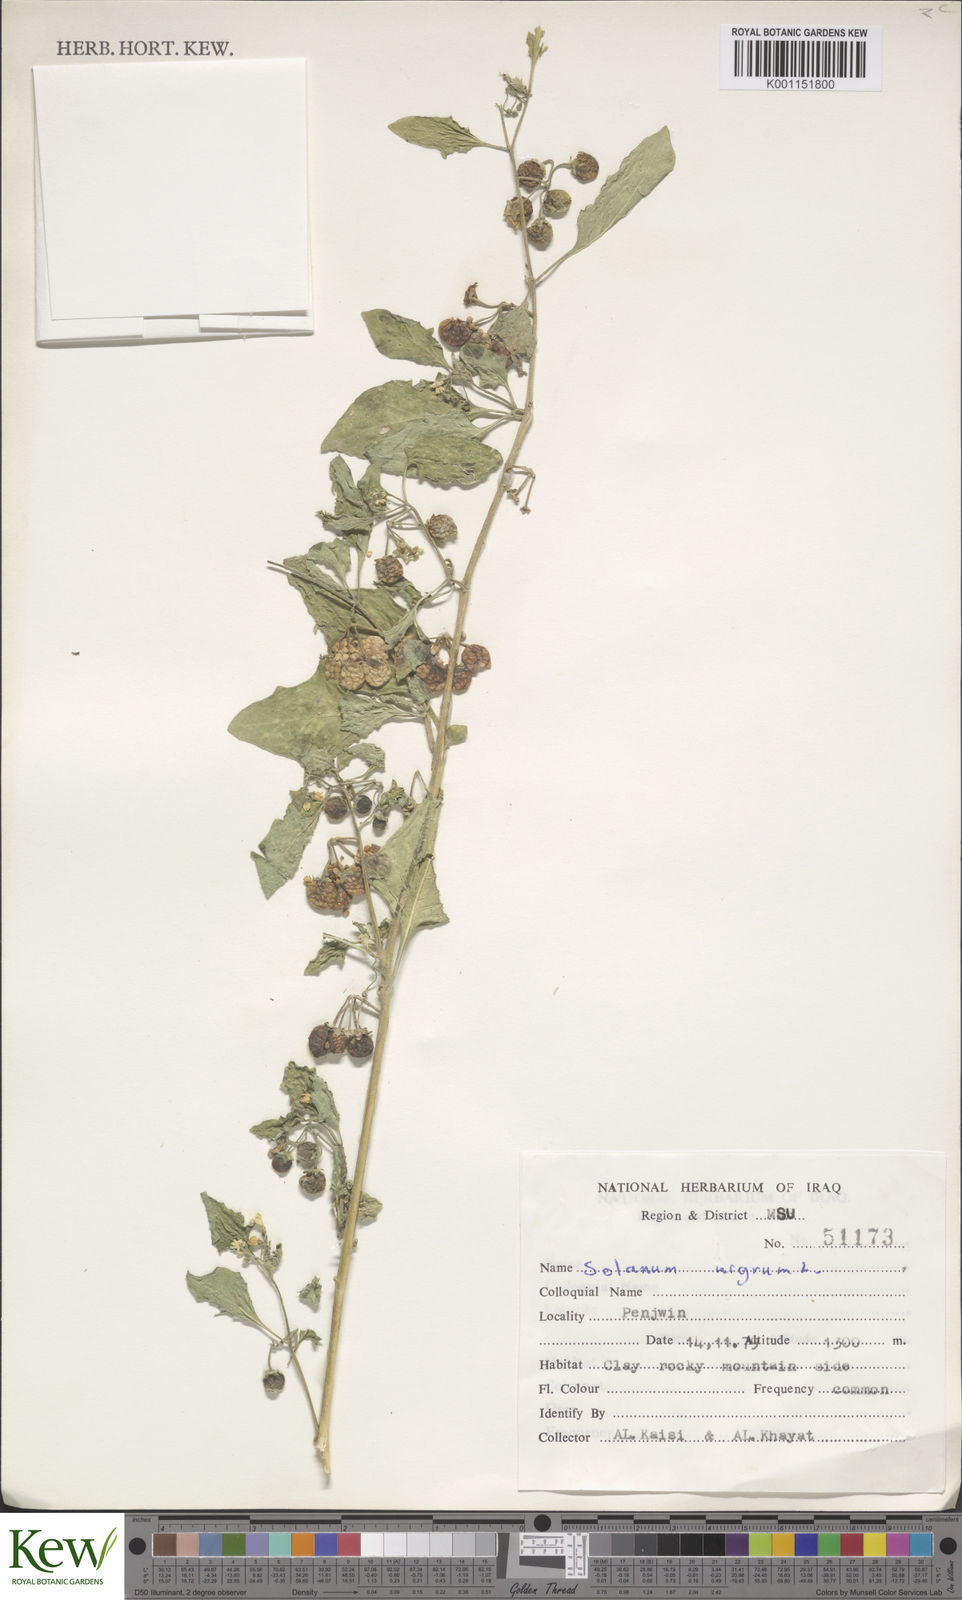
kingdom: Plantae
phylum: Tracheophyta
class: Magnoliopsida
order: Solanales
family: Solanaceae
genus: Solanum
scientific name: Solanum nigrum
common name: Black nightshade
